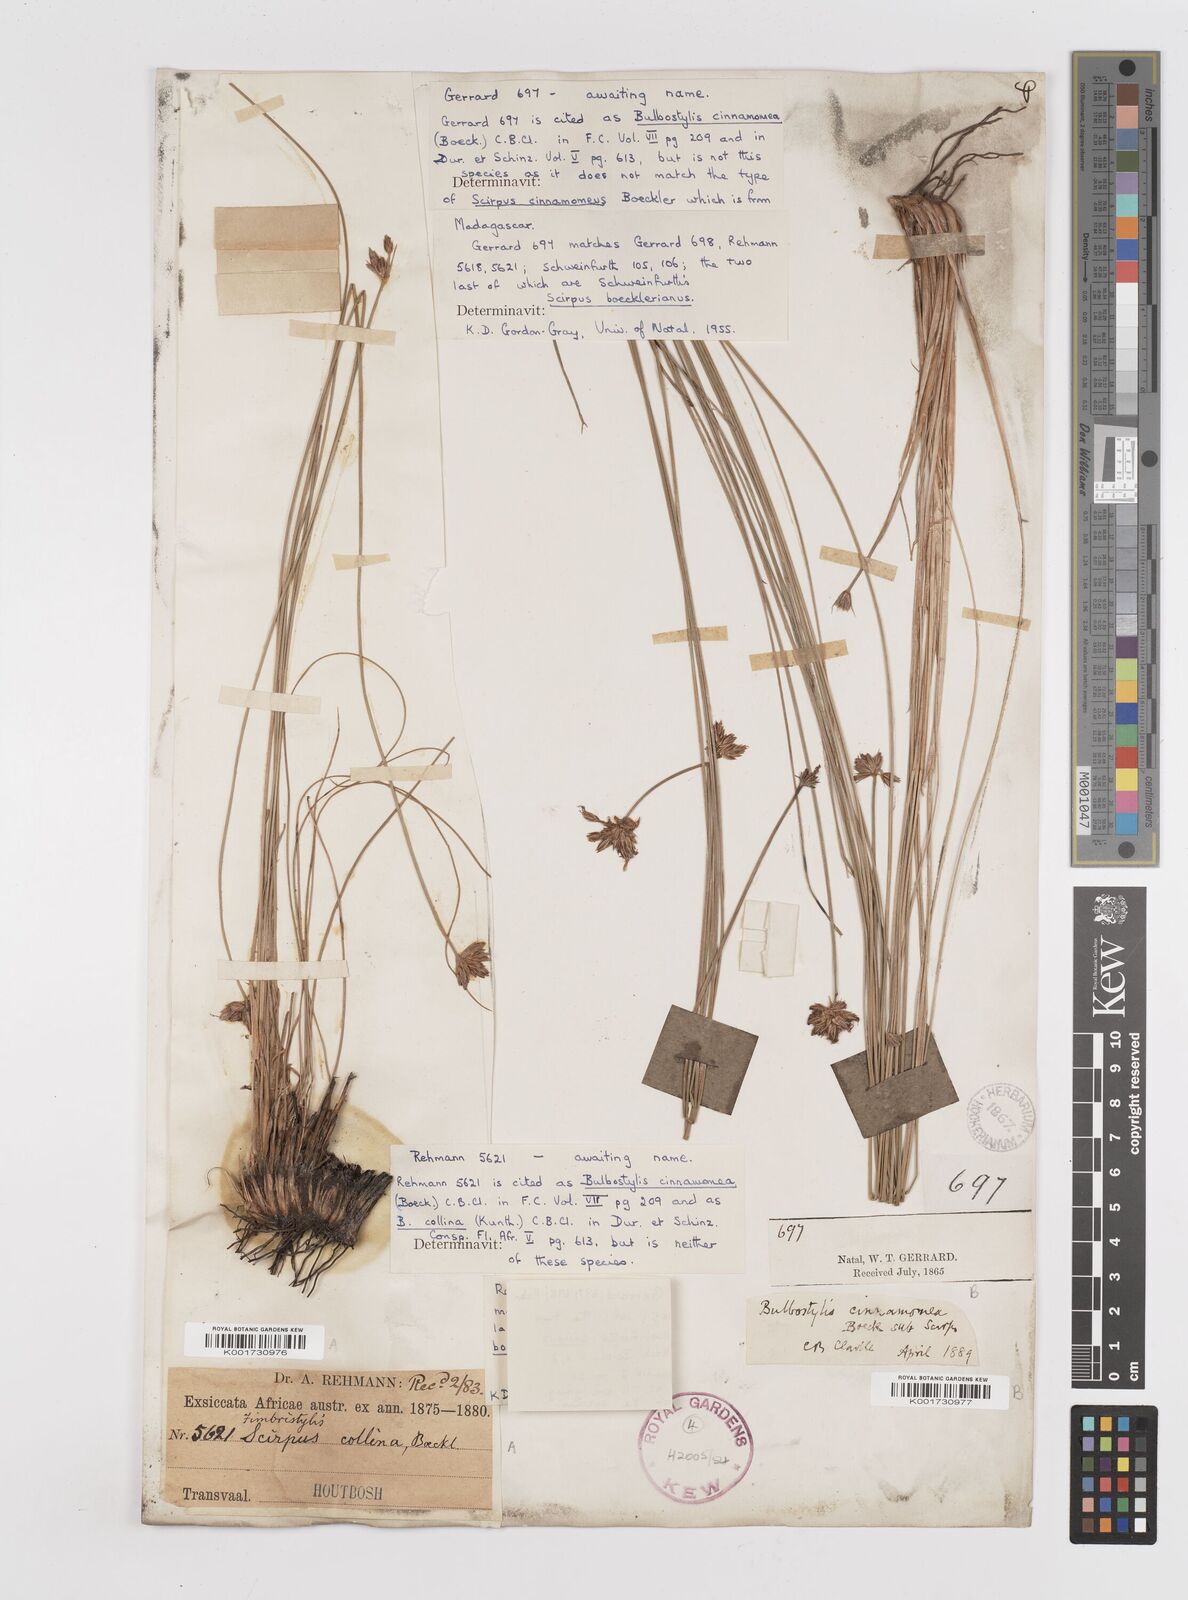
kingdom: Plantae
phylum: Tracheophyta
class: Liliopsida
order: Poales
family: Cyperaceae
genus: Bulbostylis
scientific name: Bulbostylis
